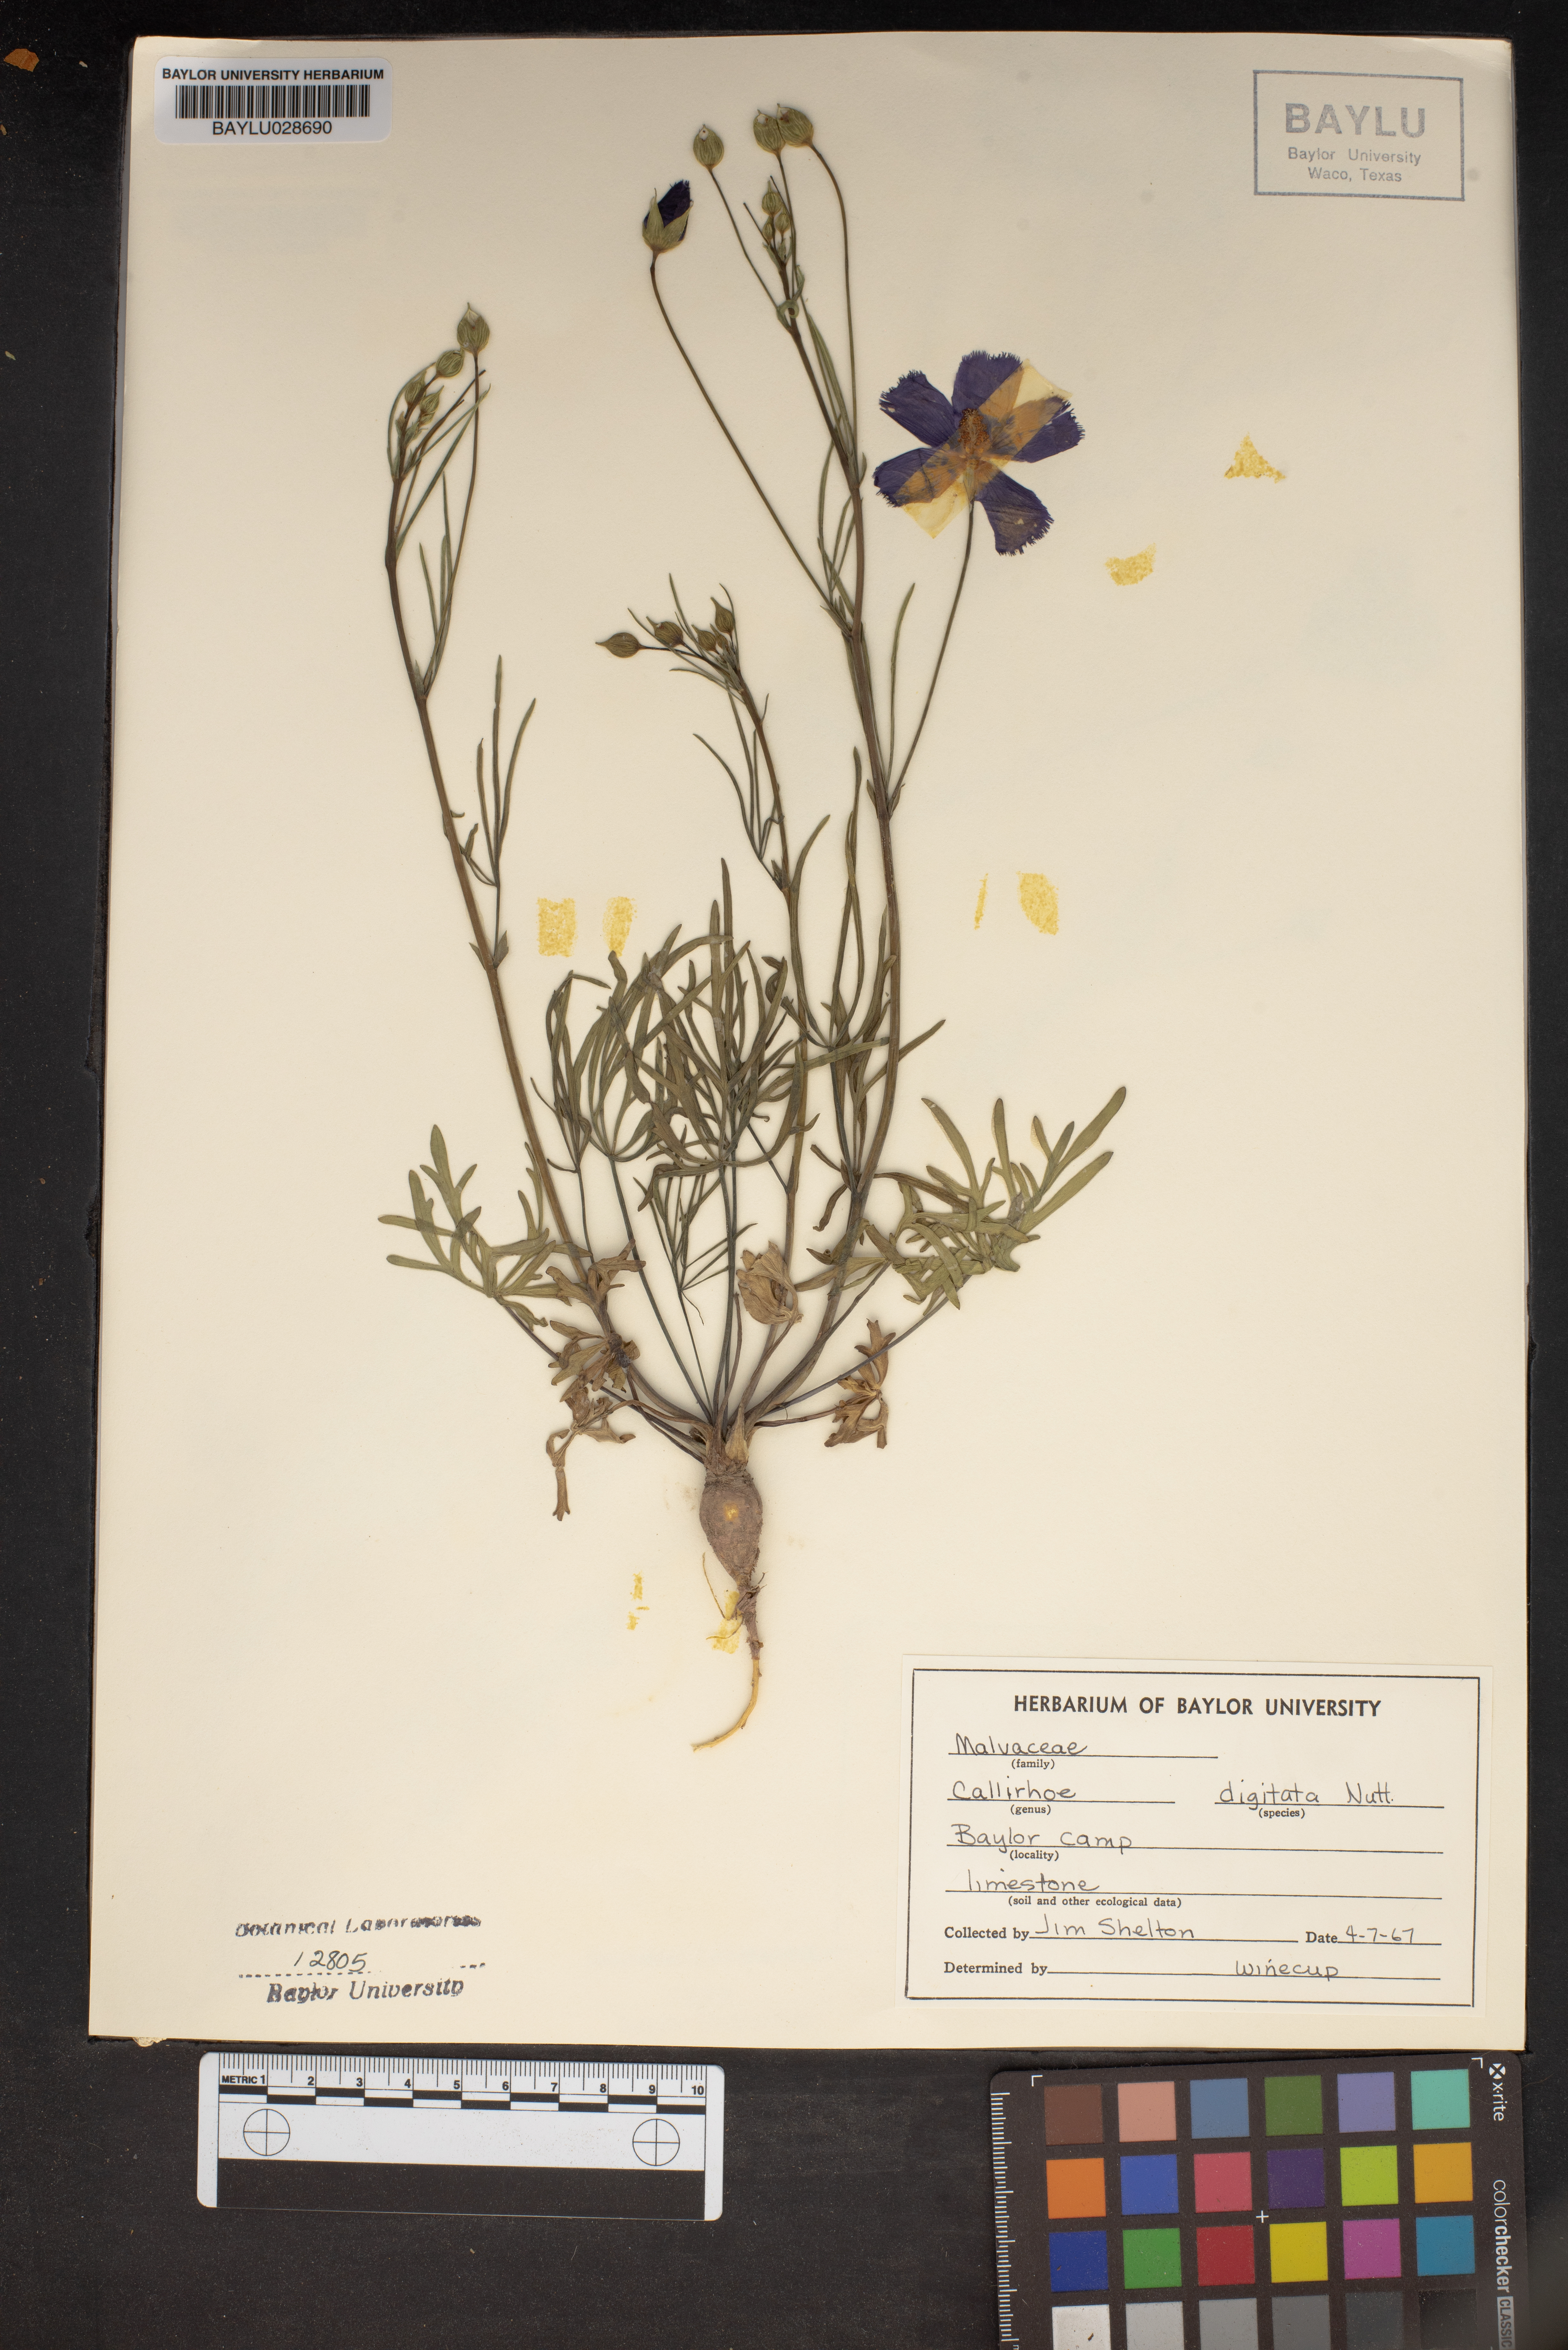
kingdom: Plantae
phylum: Tracheophyta
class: Magnoliopsida
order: Malvales
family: Malvaceae
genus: Callirhoe
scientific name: Callirhoe digitata
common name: Finger poppy-mallow
